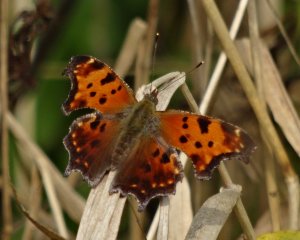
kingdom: Animalia
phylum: Arthropoda
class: Insecta
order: Lepidoptera
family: Nymphalidae
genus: Polygonia
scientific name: Polygonia comma
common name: Eastern Comma
